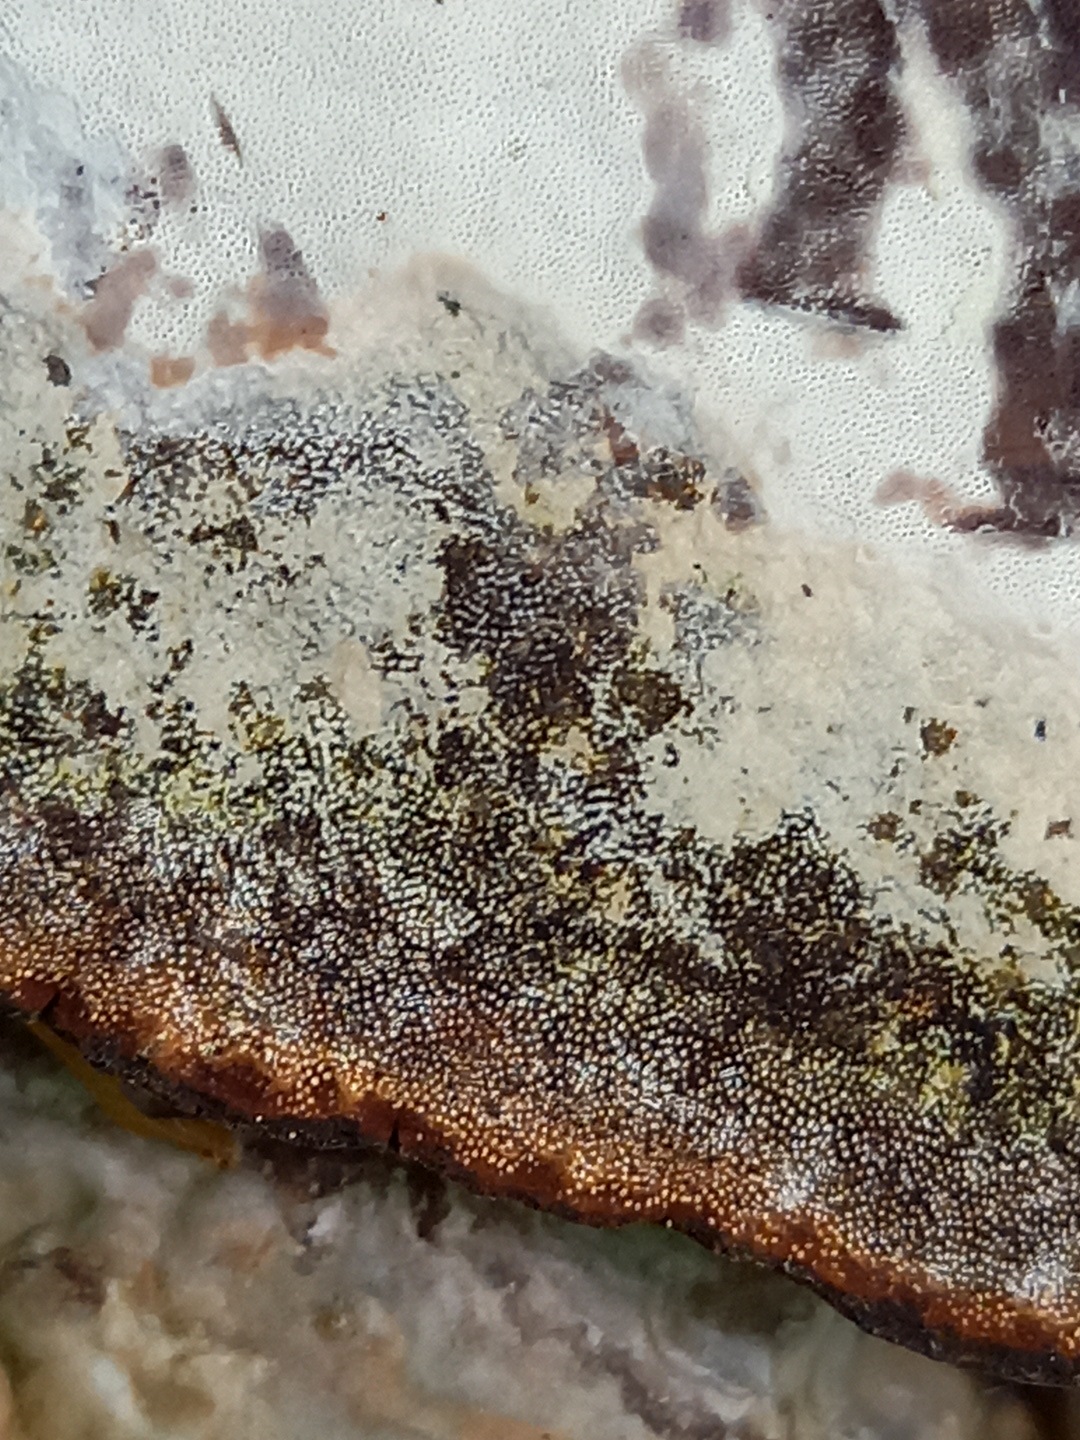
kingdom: Fungi
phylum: Basidiomycota
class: Agaricomycetes
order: Polyporales
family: Polyporaceae
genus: Ganoderma
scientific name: Ganoderma applanatum
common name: flad lakporesvamp
